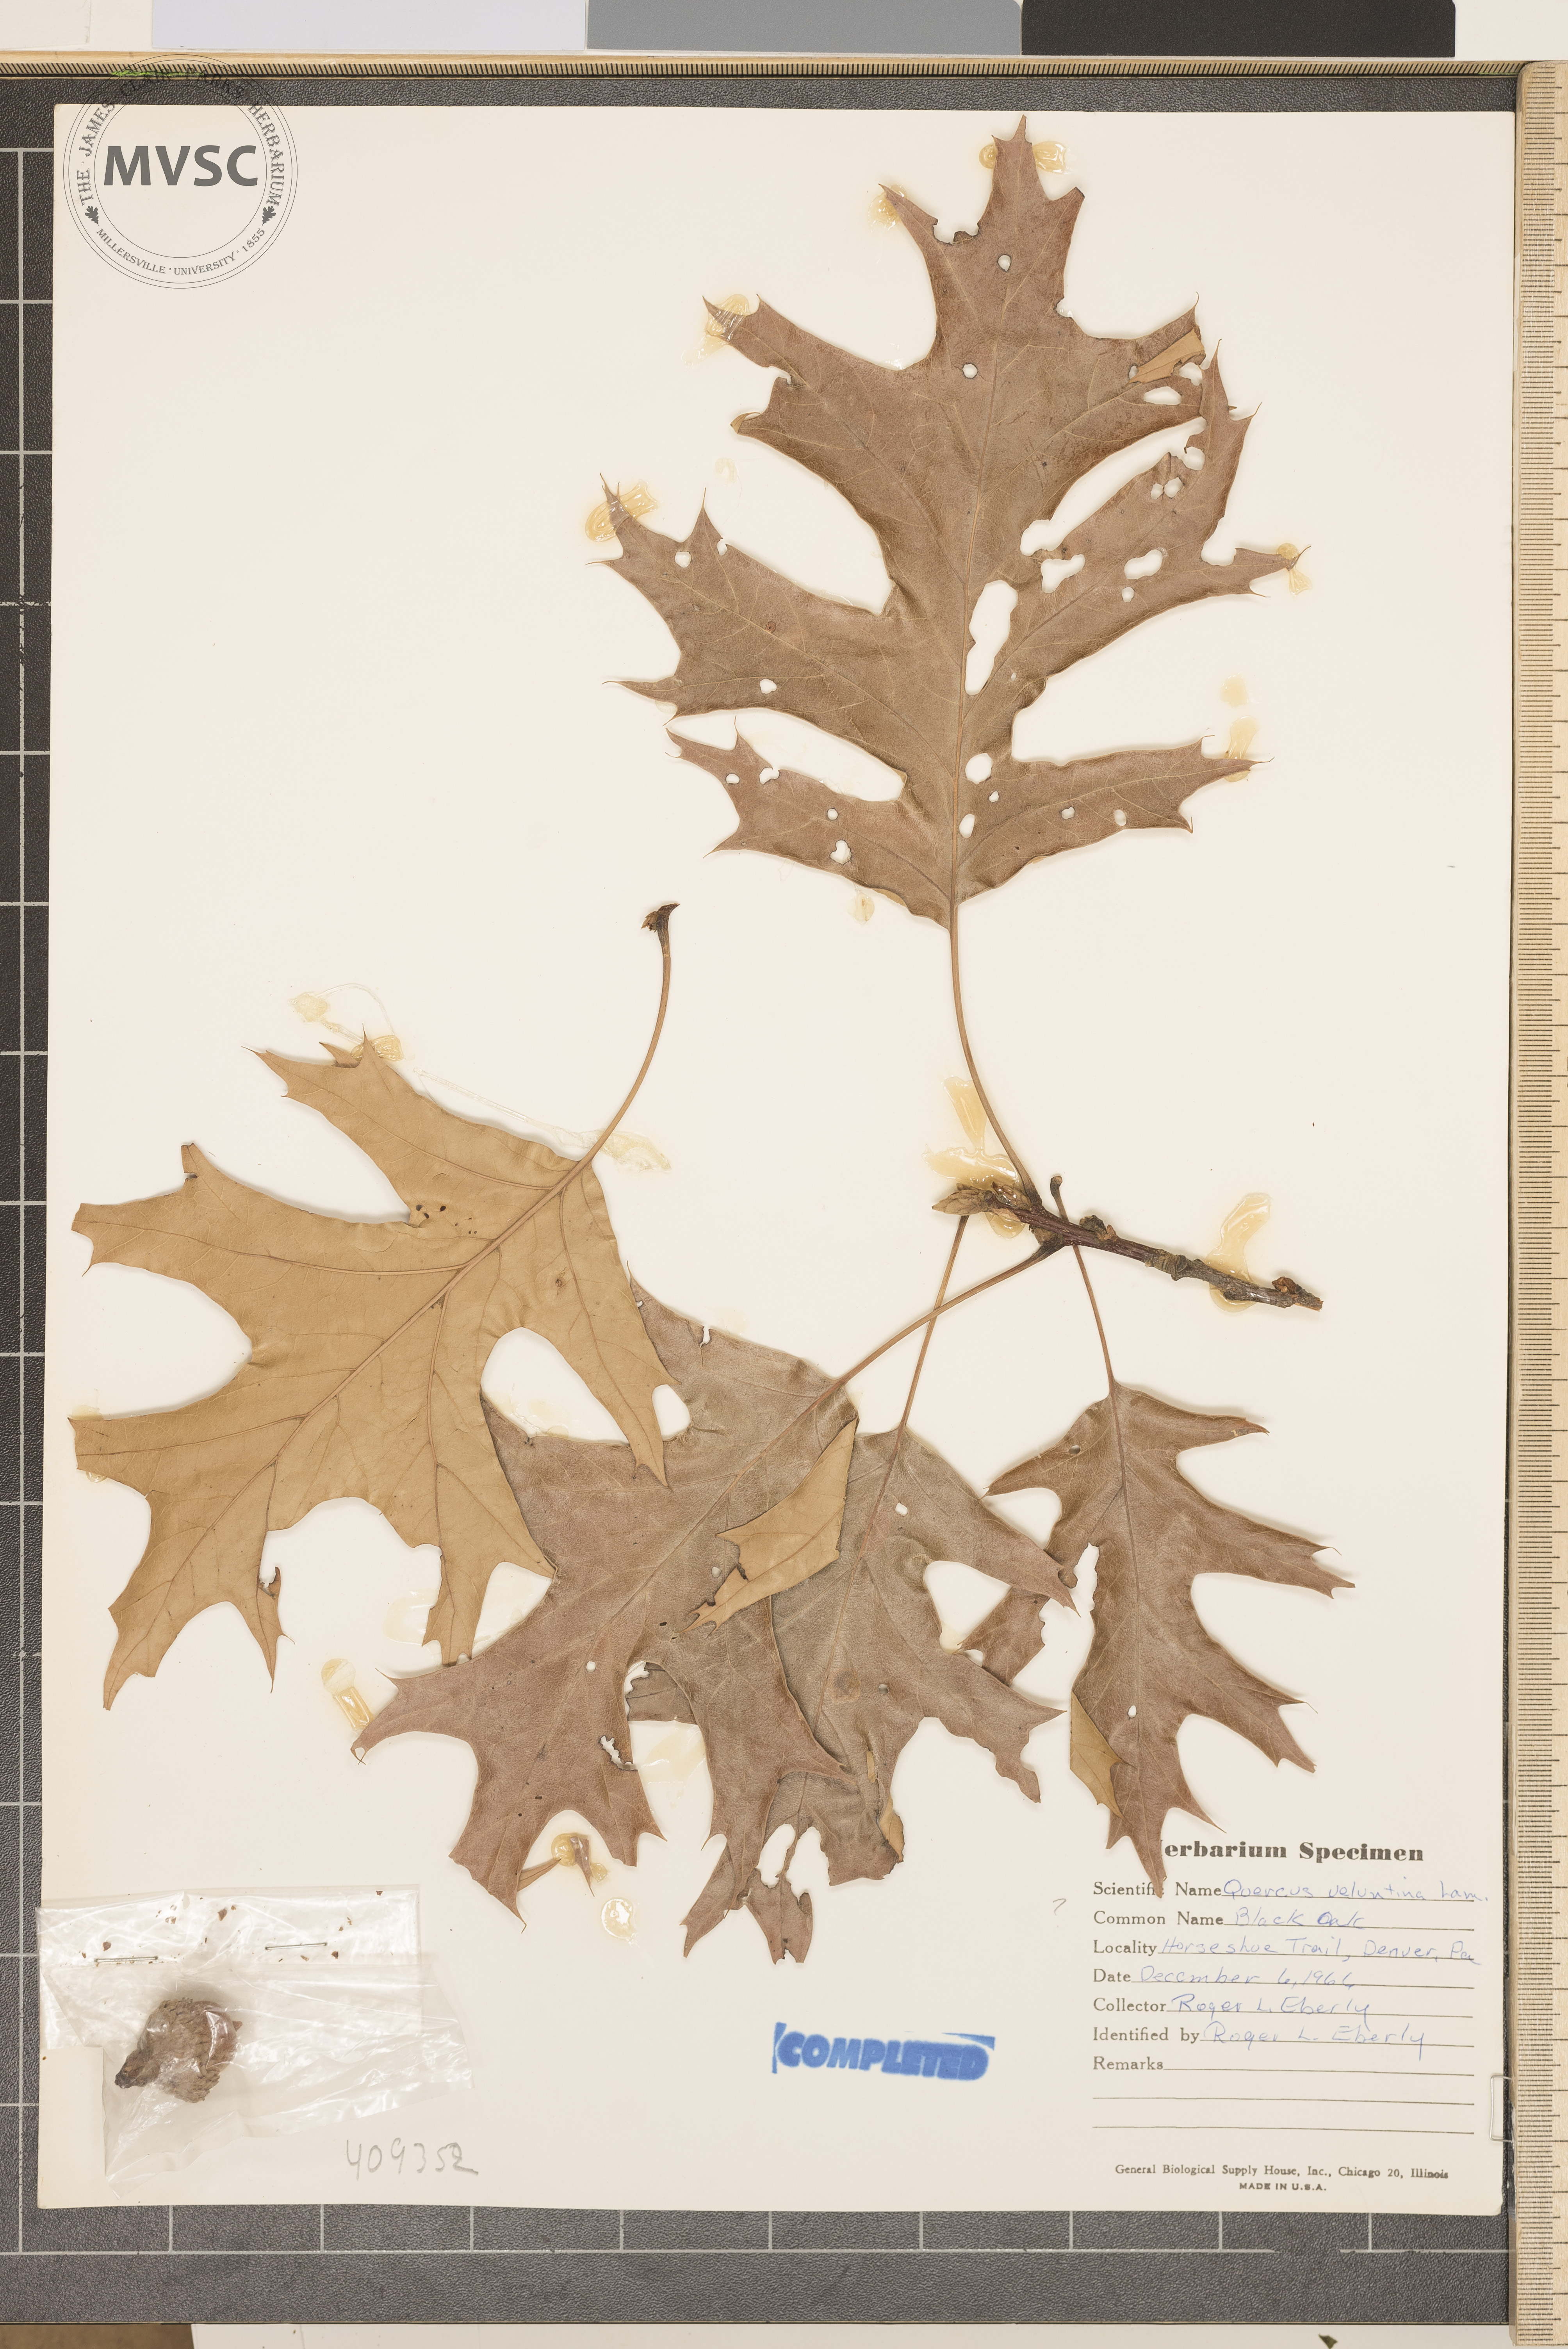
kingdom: Plantae
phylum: Tracheophyta
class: Magnoliopsida
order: Fagales
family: Fagaceae
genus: Quercus
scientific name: Quercus velutina
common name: Black oak
